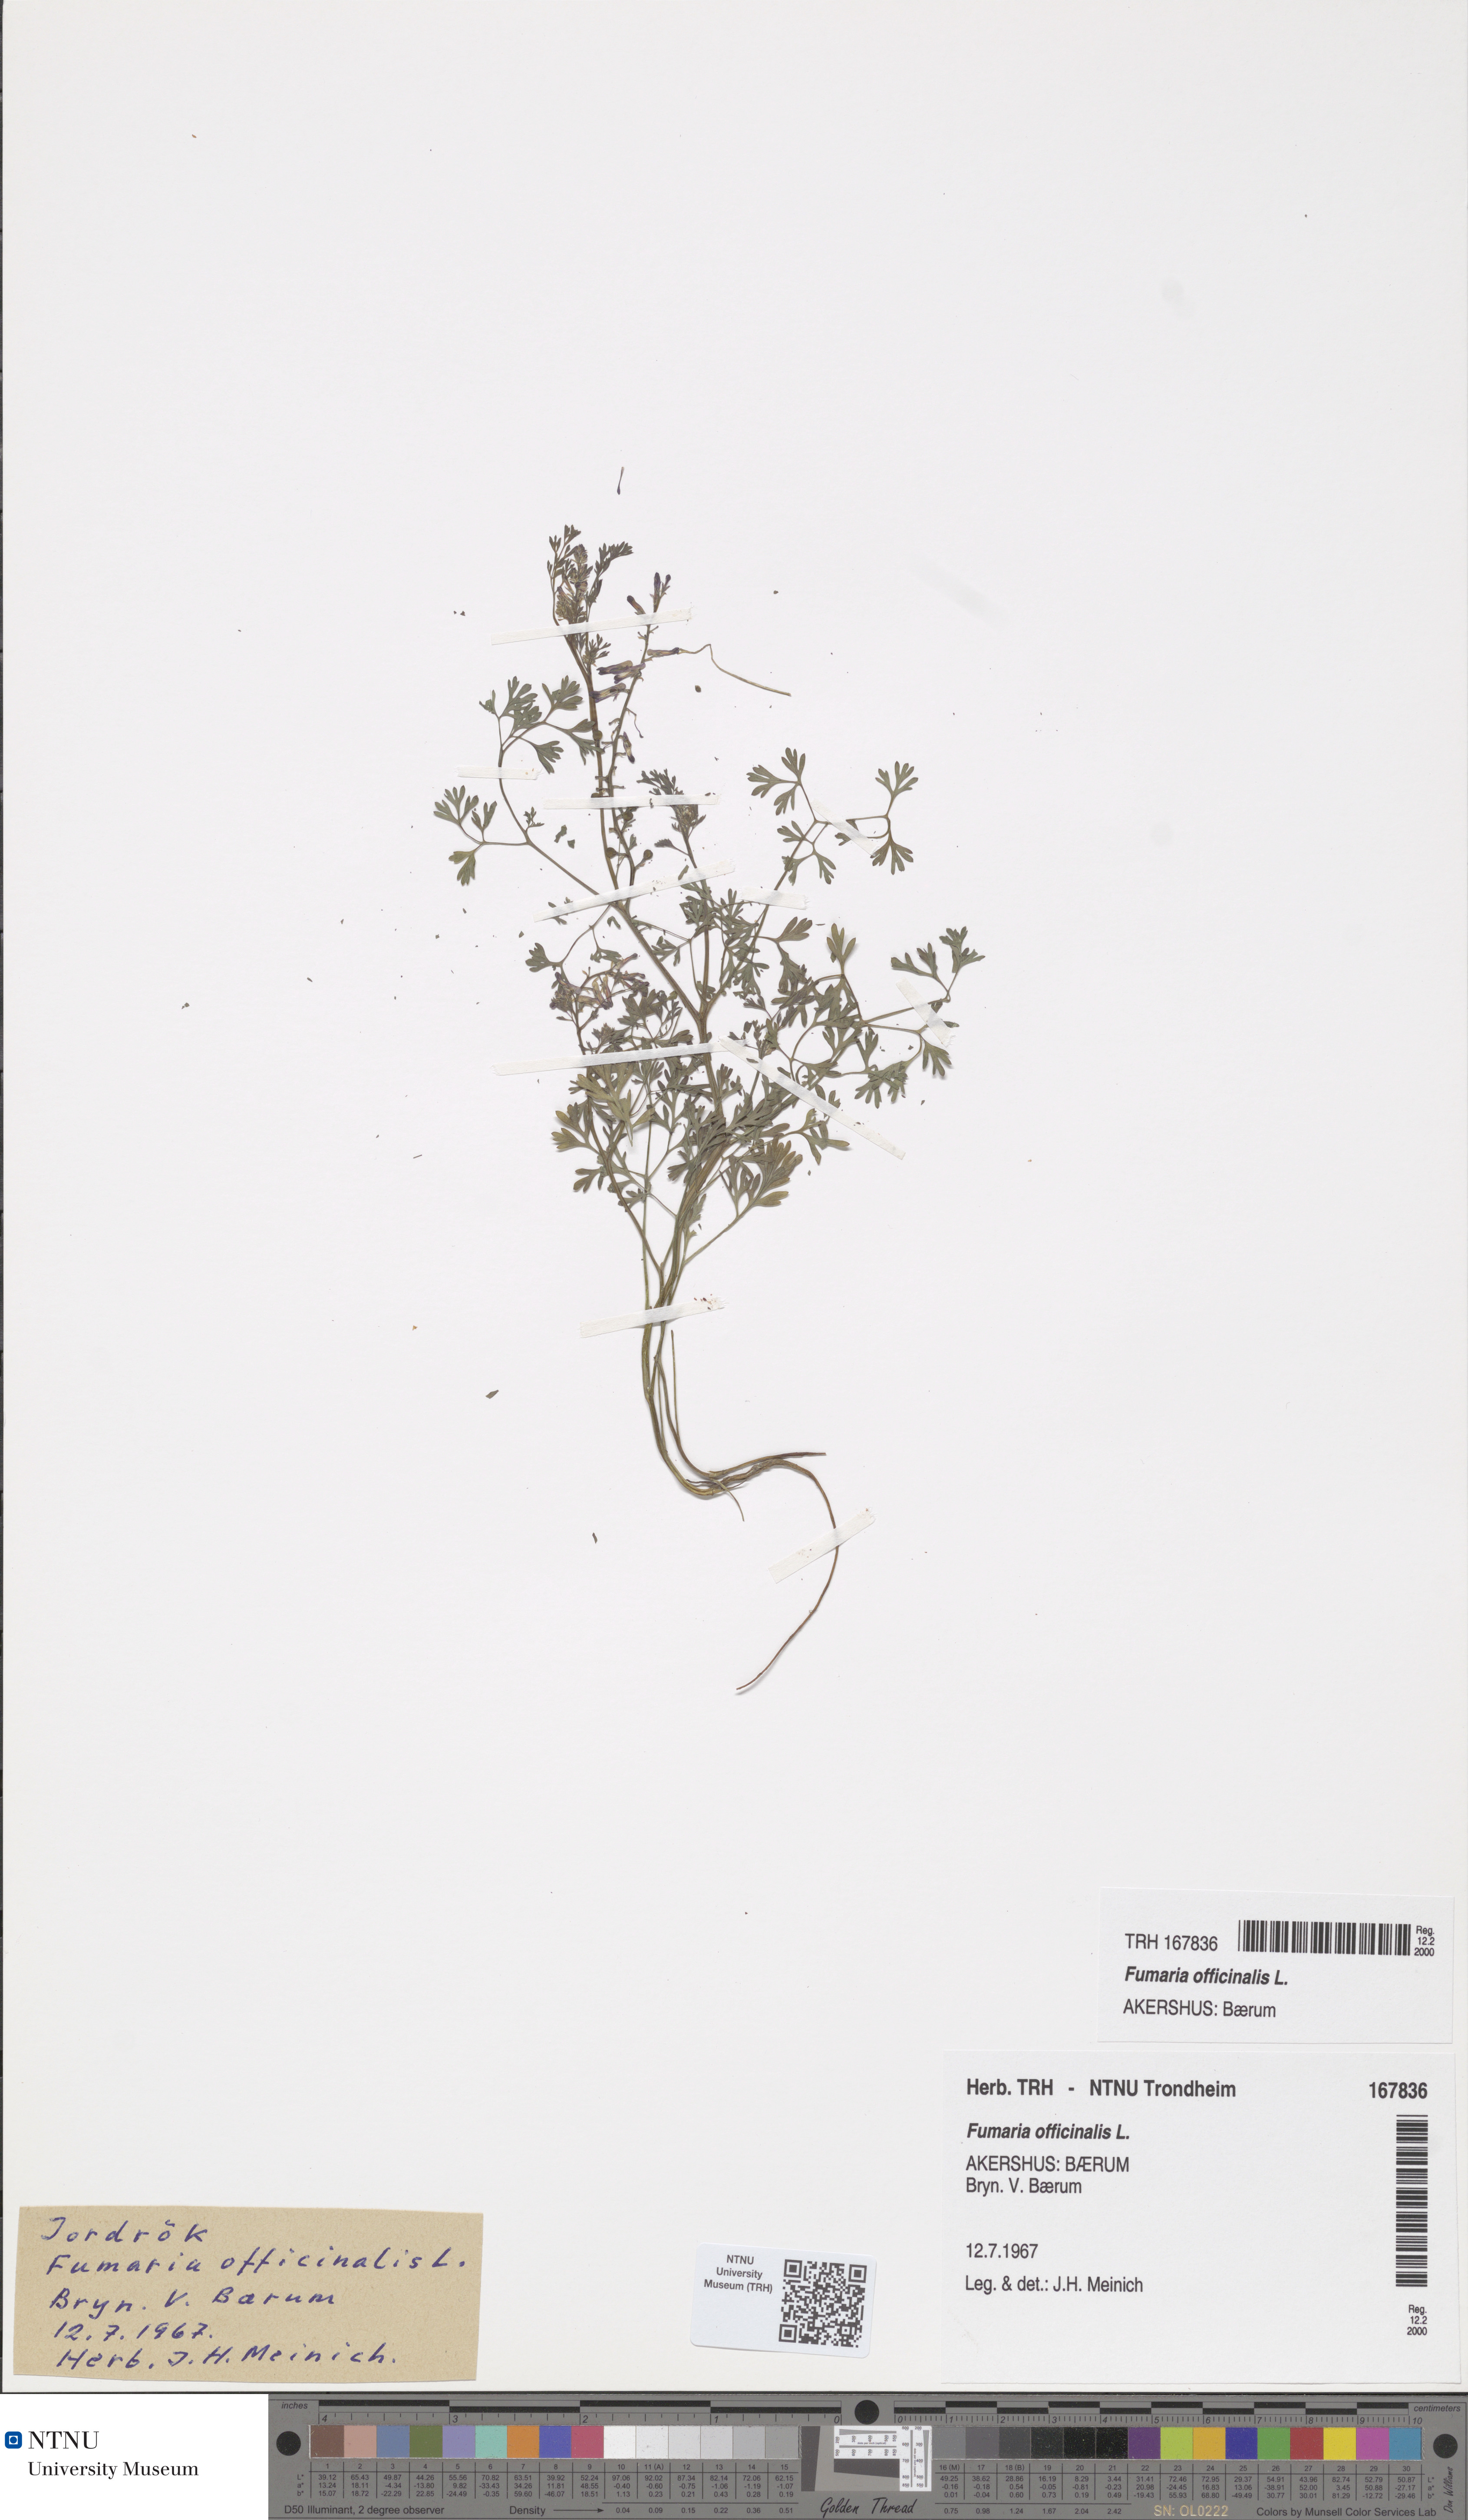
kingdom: Plantae
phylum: Tracheophyta
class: Magnoliopsida
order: Ranunculales
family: Papaveraceae
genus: Fumaria
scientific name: Fumaria officinalis
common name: Common fumitory
